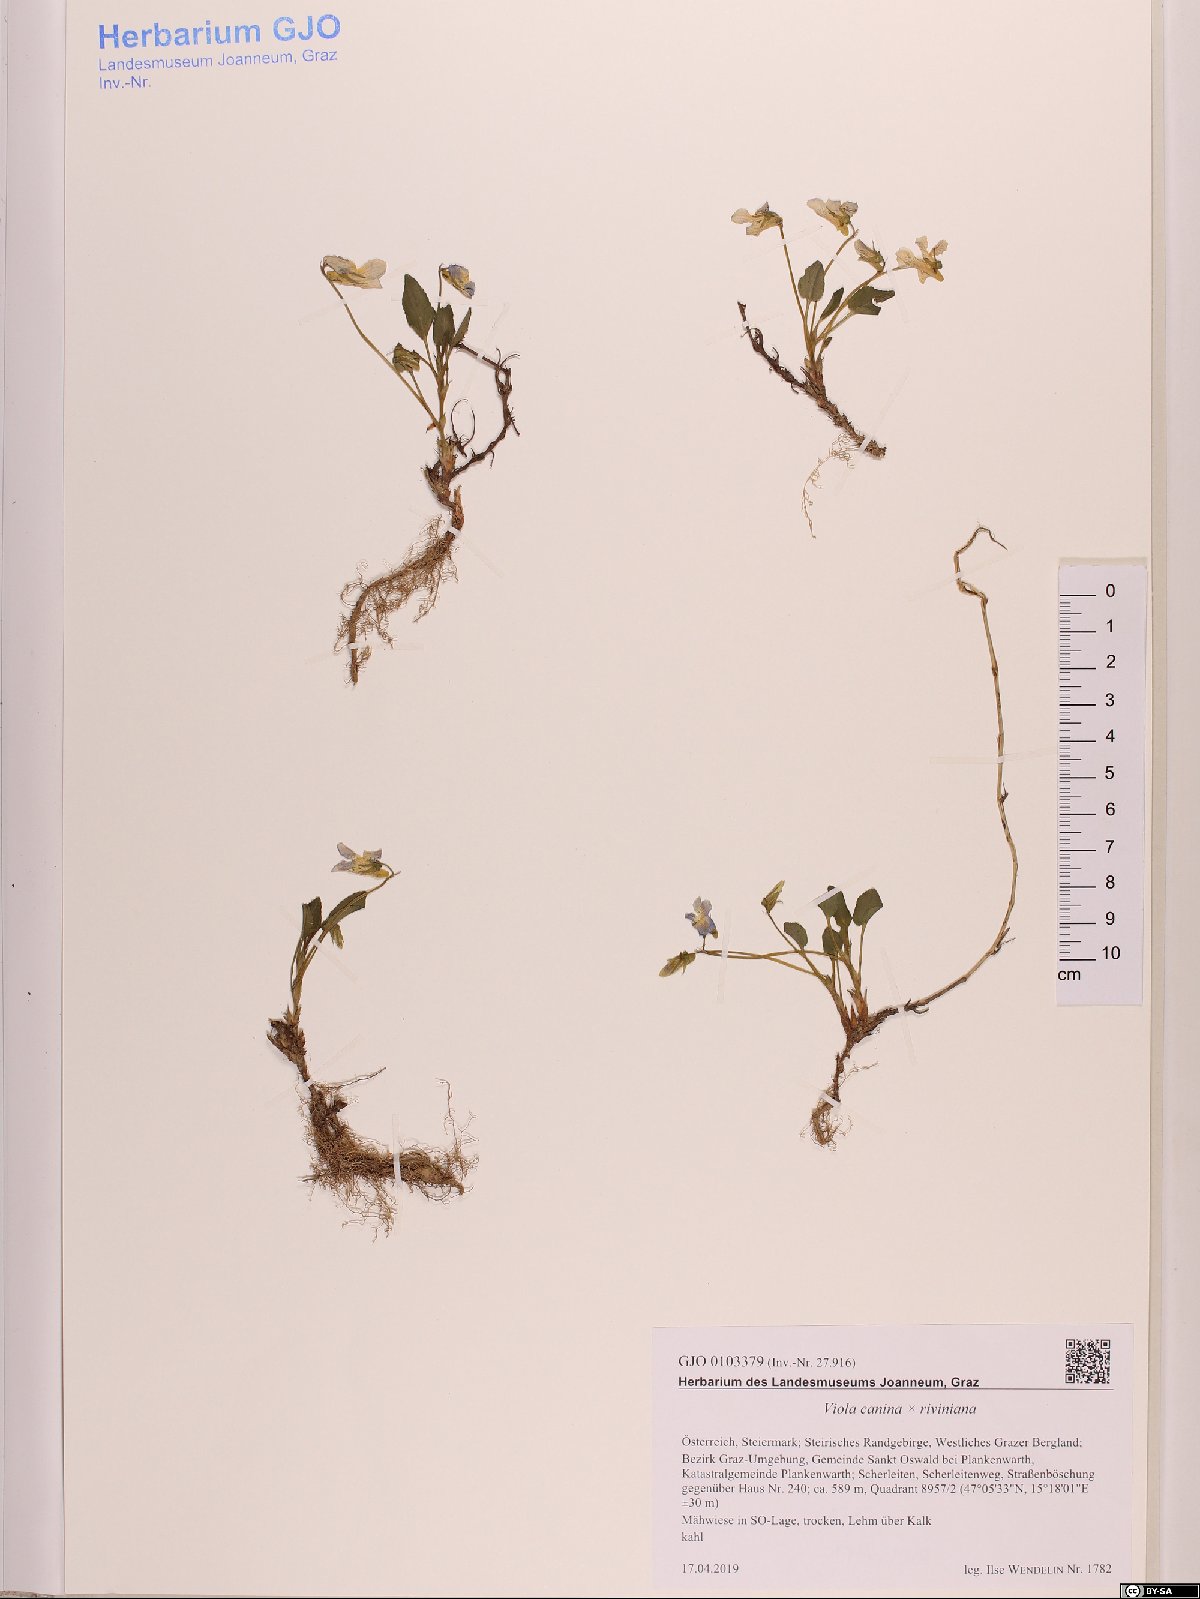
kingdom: Plantae
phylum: Tracheophyta
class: Magnoliopsida
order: Malpighiales
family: Violaceae
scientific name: Violaceae
